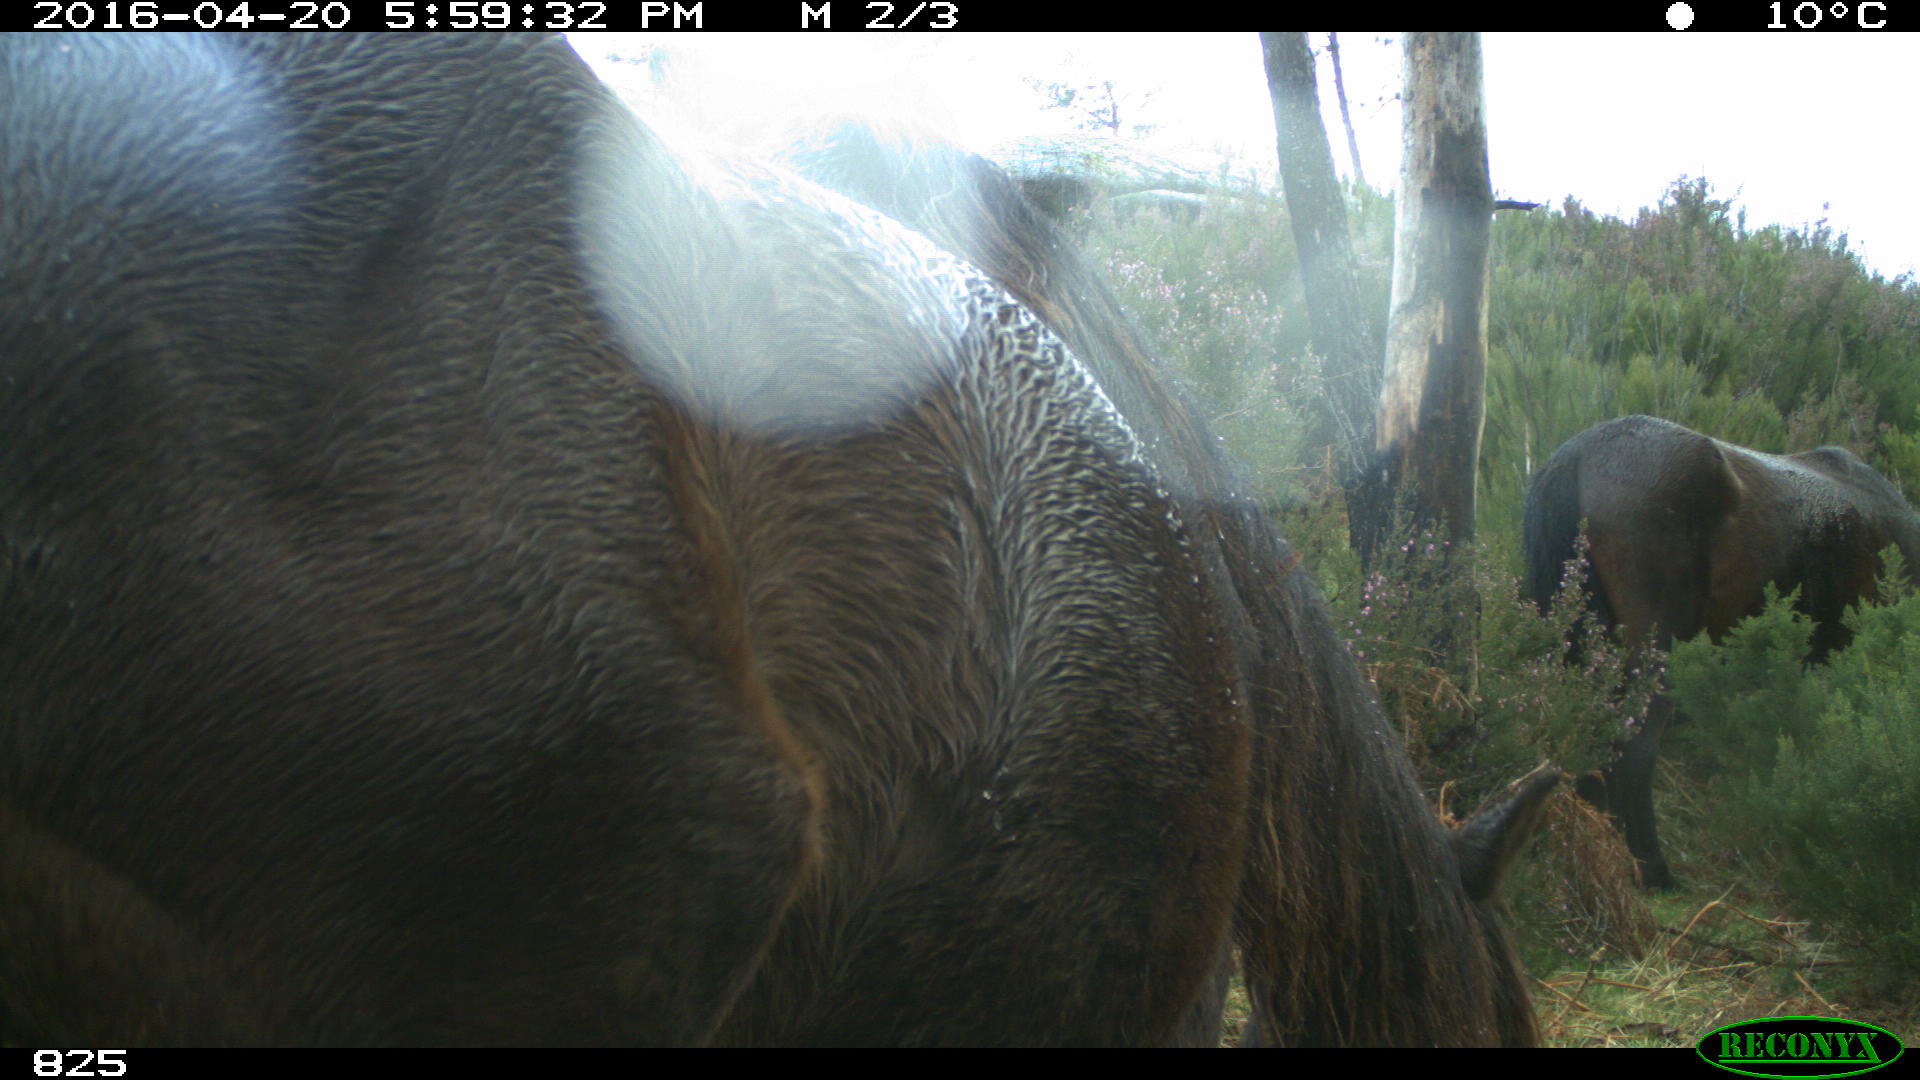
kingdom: Animalia
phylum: Chordata
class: Mammalia
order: Perissodactyla
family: Equidae
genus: Equus
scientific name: Equus caballus
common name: Horse
